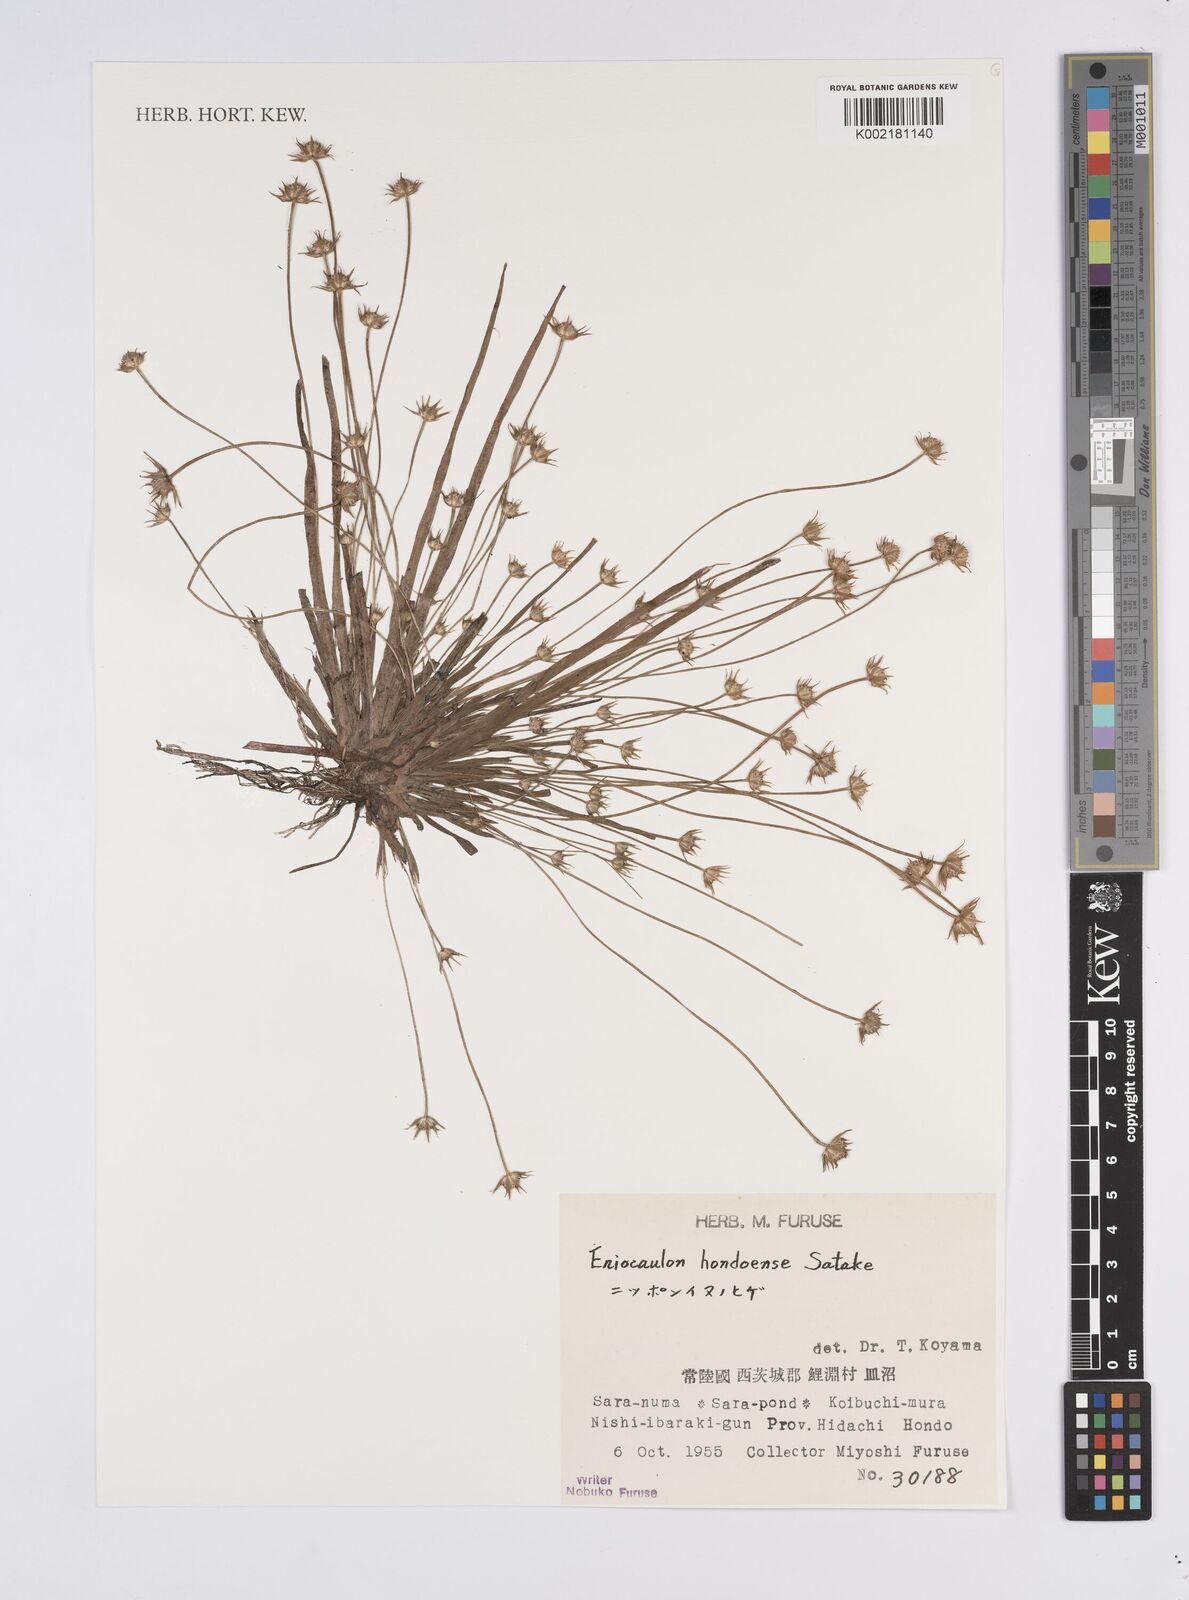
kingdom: Plantae
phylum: Tracheophyta
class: Liliopsida
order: Poales
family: Eriocaulaceae
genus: Eriocaulon
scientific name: Eriocaulon taquetii
